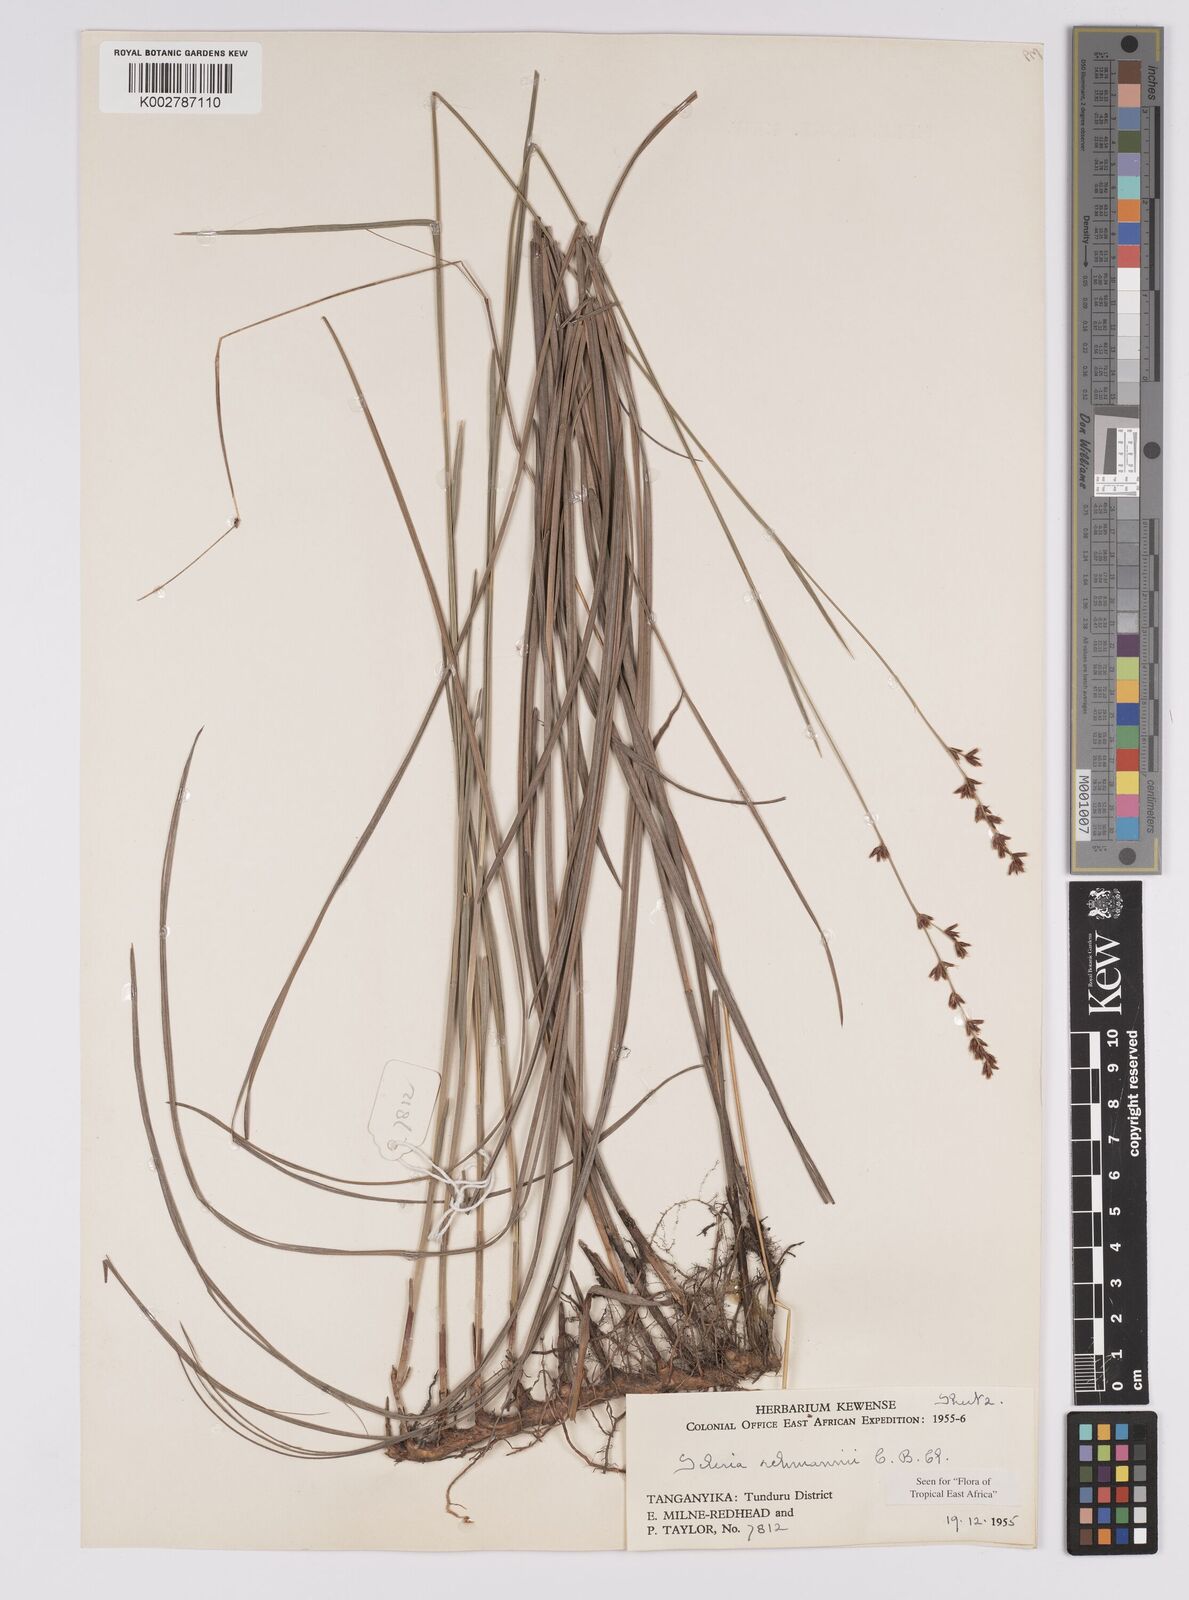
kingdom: Plantae
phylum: Tracheophyta
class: Liliopsida
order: Poales
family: Cyperaceae
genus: Scleria
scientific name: Scleria rehmannii
